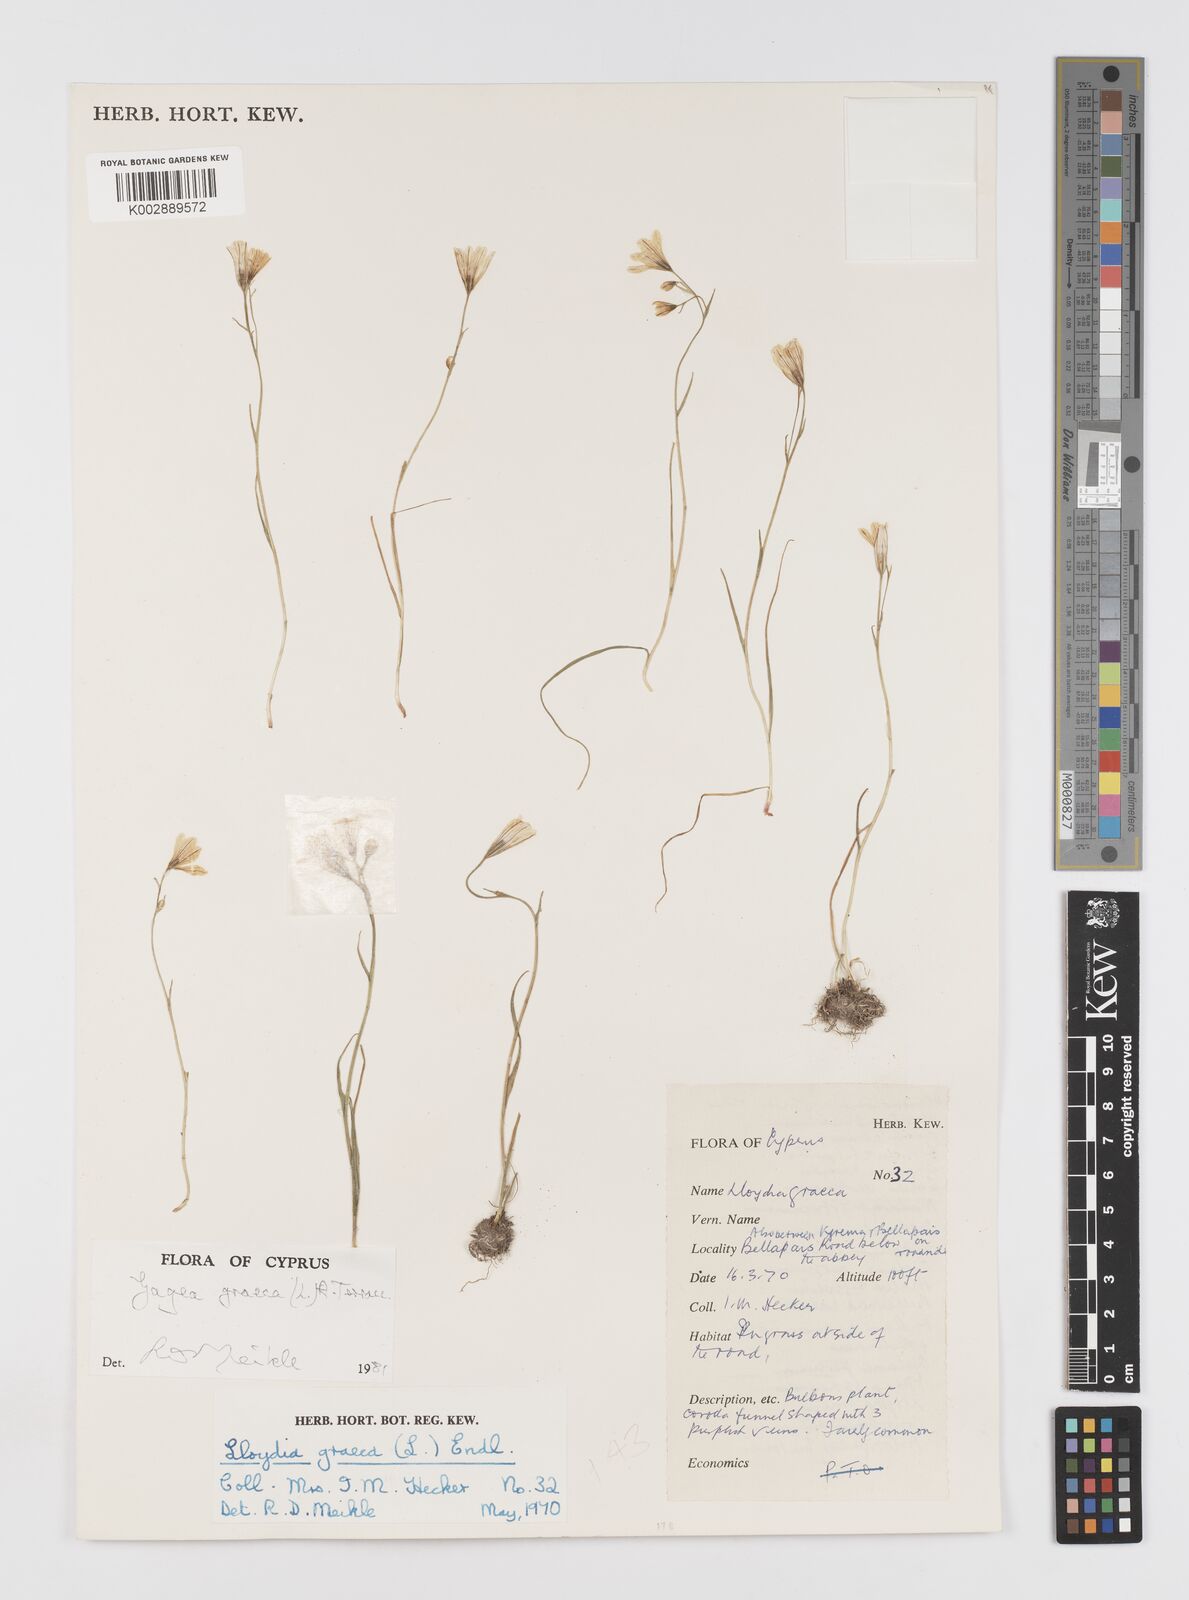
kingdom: Plantae
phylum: Tracheophyta
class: Liliopsida
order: Liliales
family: Liliaceae
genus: Gagea
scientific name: Gagea graeca
